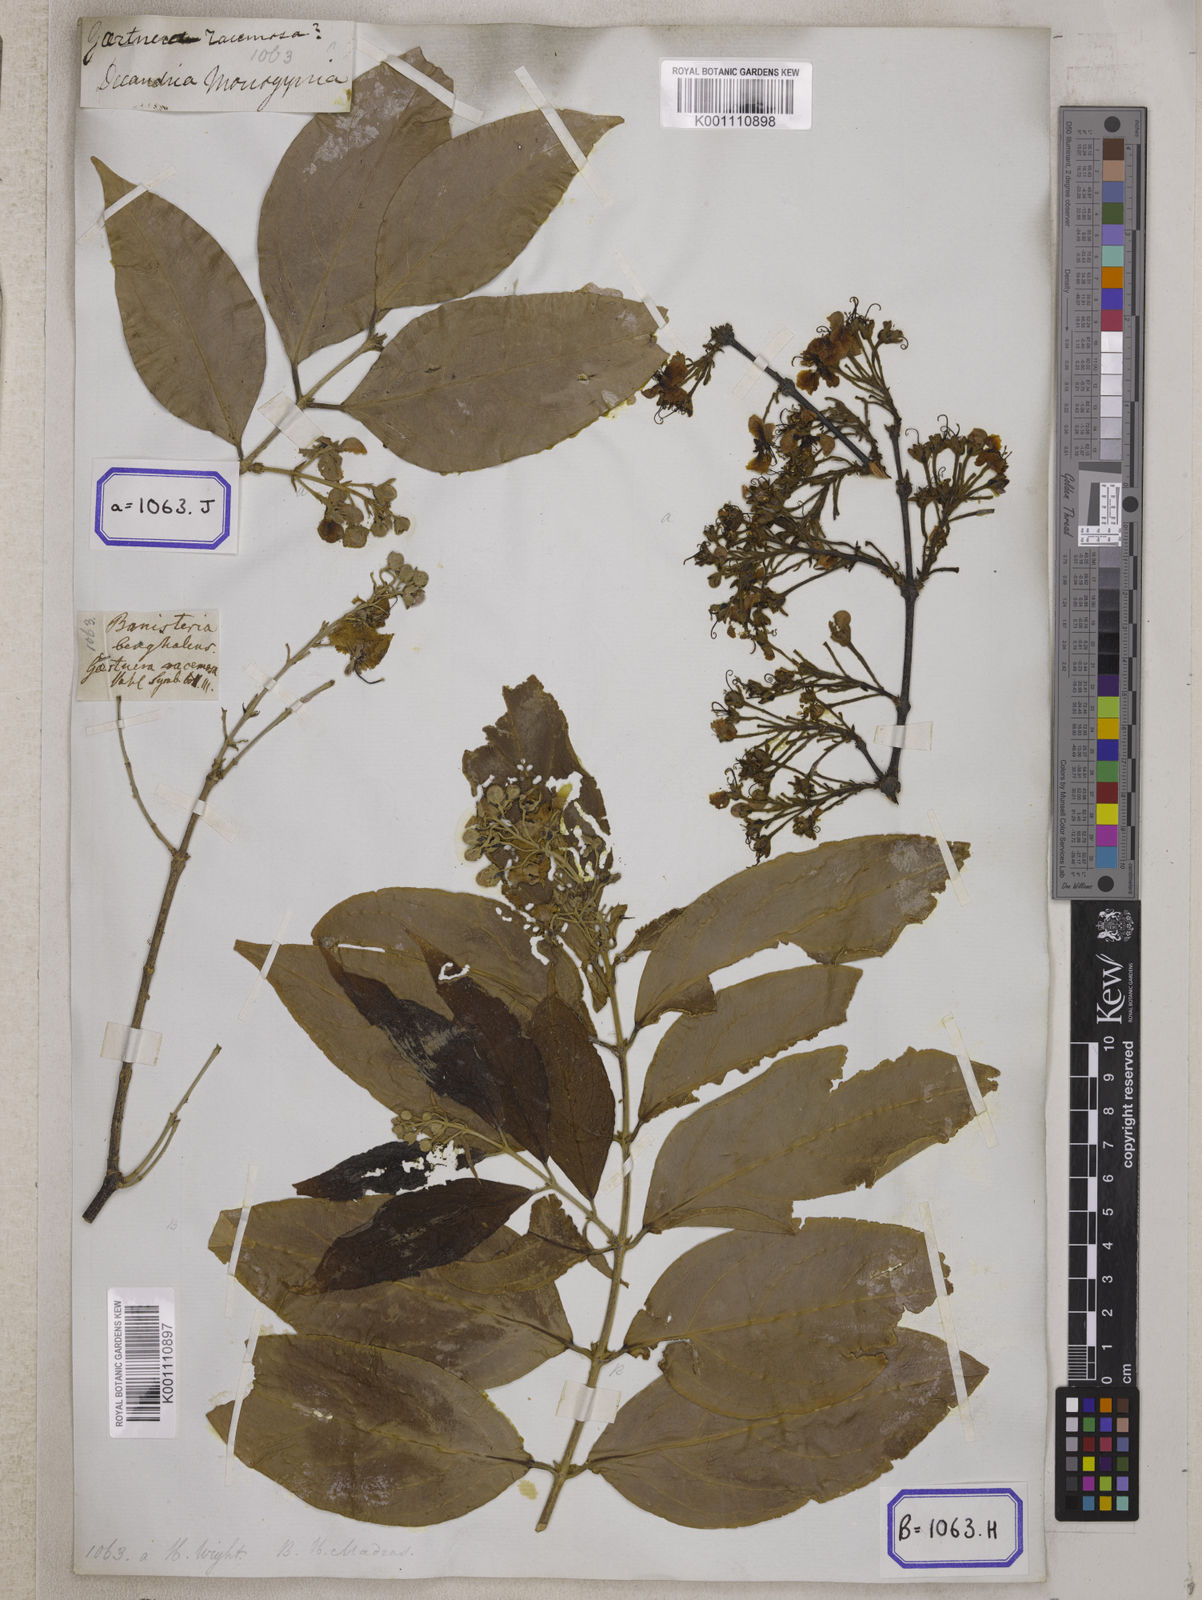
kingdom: Plantae
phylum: Tracheophyta
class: Magnoliopsida
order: Malpighiales
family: Malpighiaceae
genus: Hiptage
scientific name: Hiptage benghalensis
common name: Hiptage
